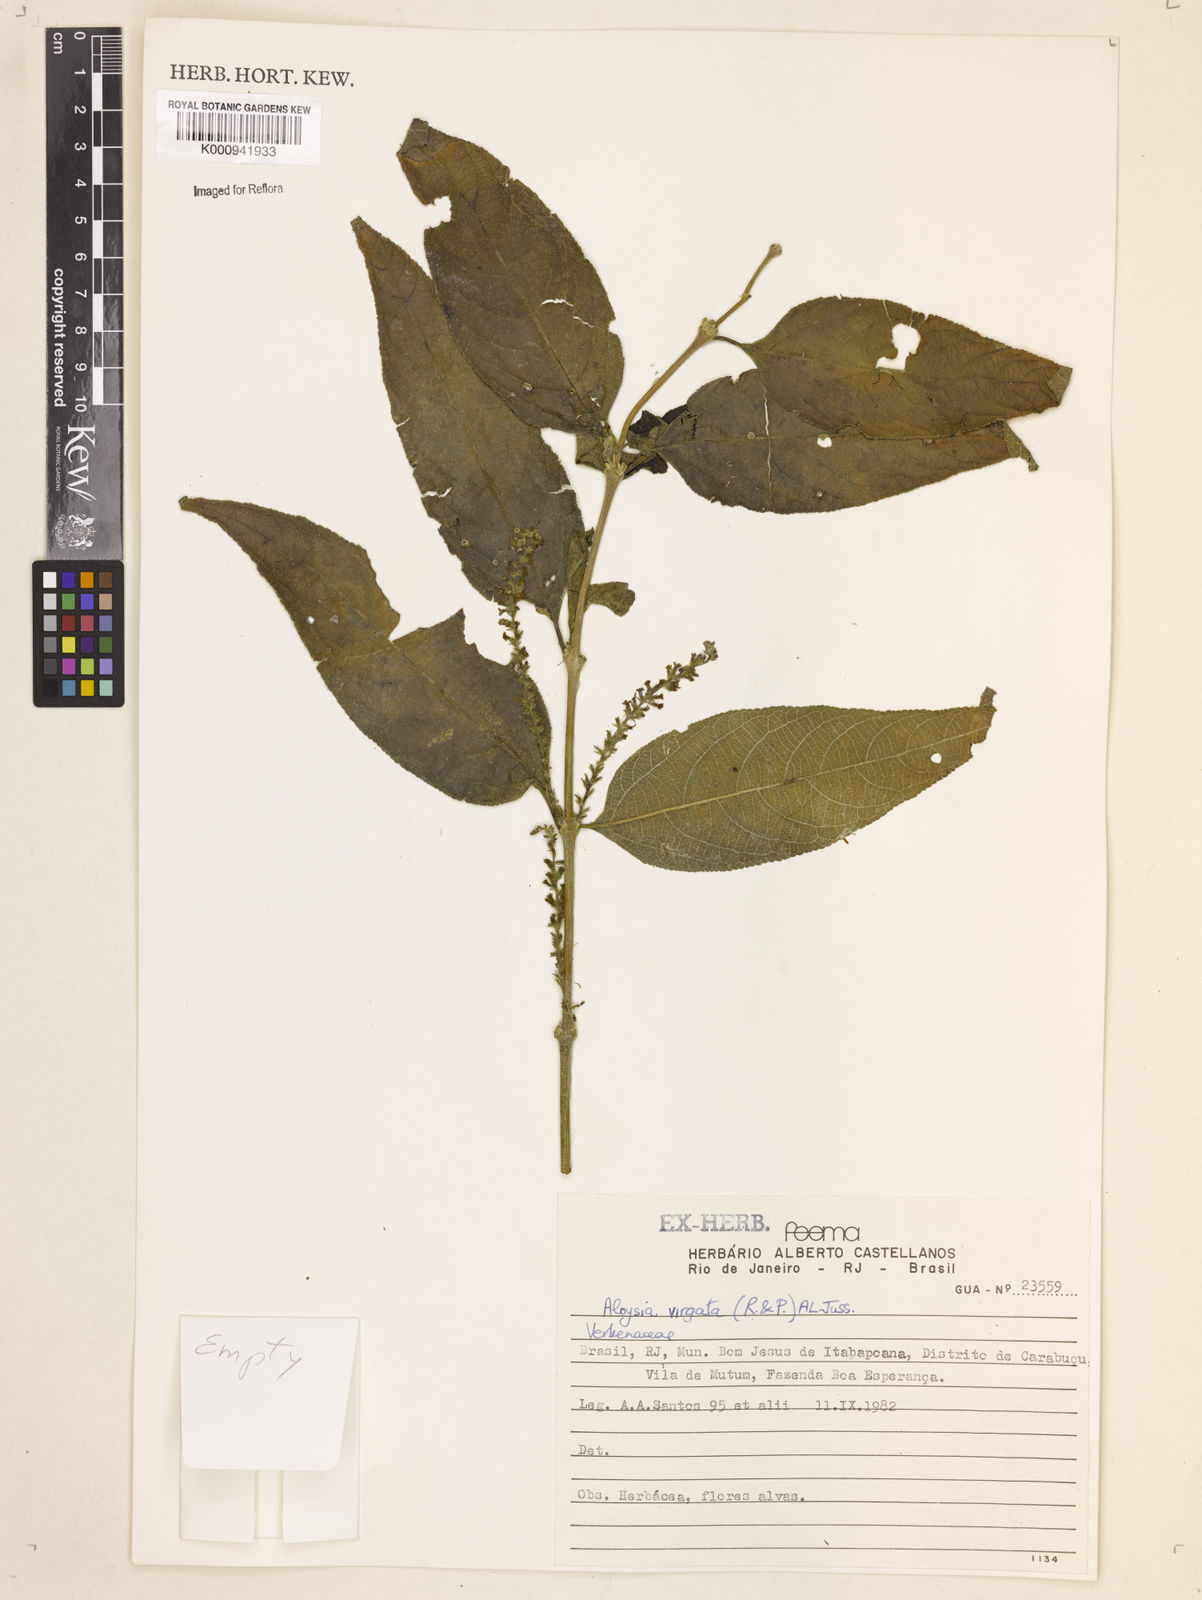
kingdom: Plantae
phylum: Tracheophyta
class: Magnoliopsida
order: Lamiales
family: Verbenaceae
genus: Aloysia
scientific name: Aloysia
